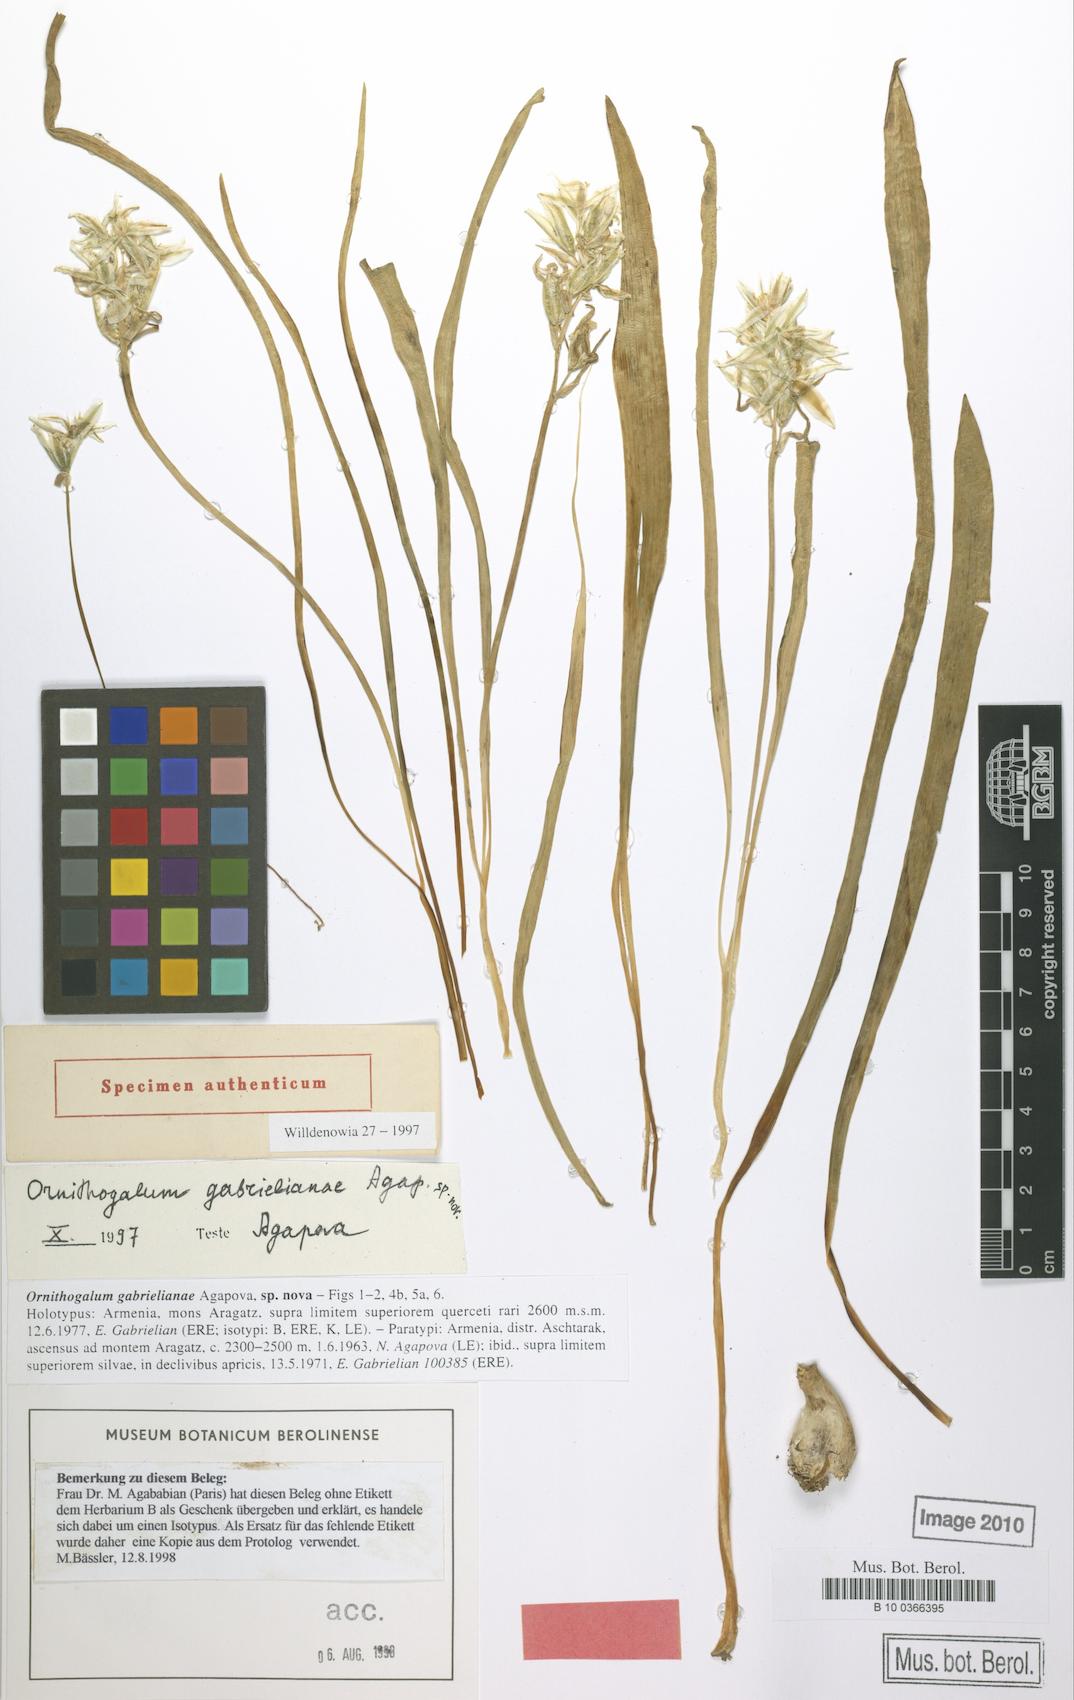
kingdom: Plantae
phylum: Tracheophyta
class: Liliopsida
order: Asparagales
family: Asparagaceae
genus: Ornithogalum
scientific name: Ornithogalum gabrielianiae
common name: Gabrielyan's starflowers
